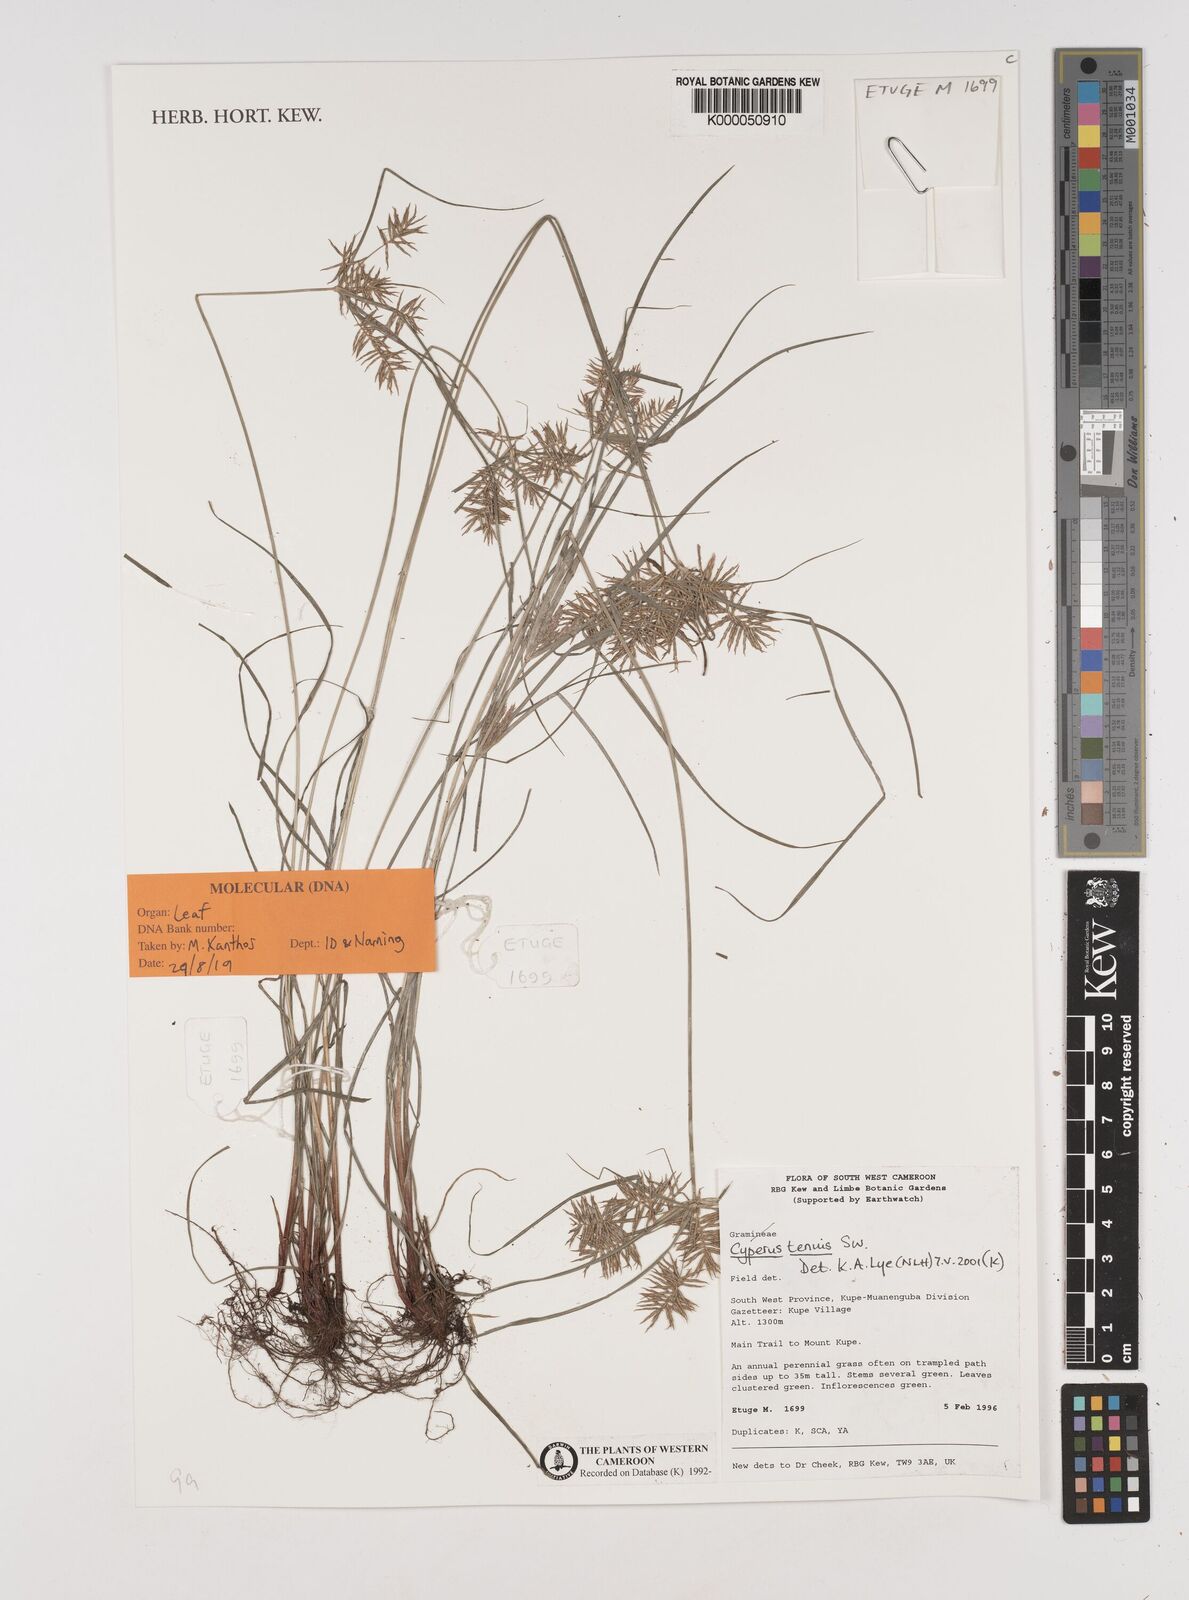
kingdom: Plantae
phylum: Tracheophyta
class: Liliopsida
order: Poales
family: Cyperaceae
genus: Cyperus
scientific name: Cyperus tenuis
